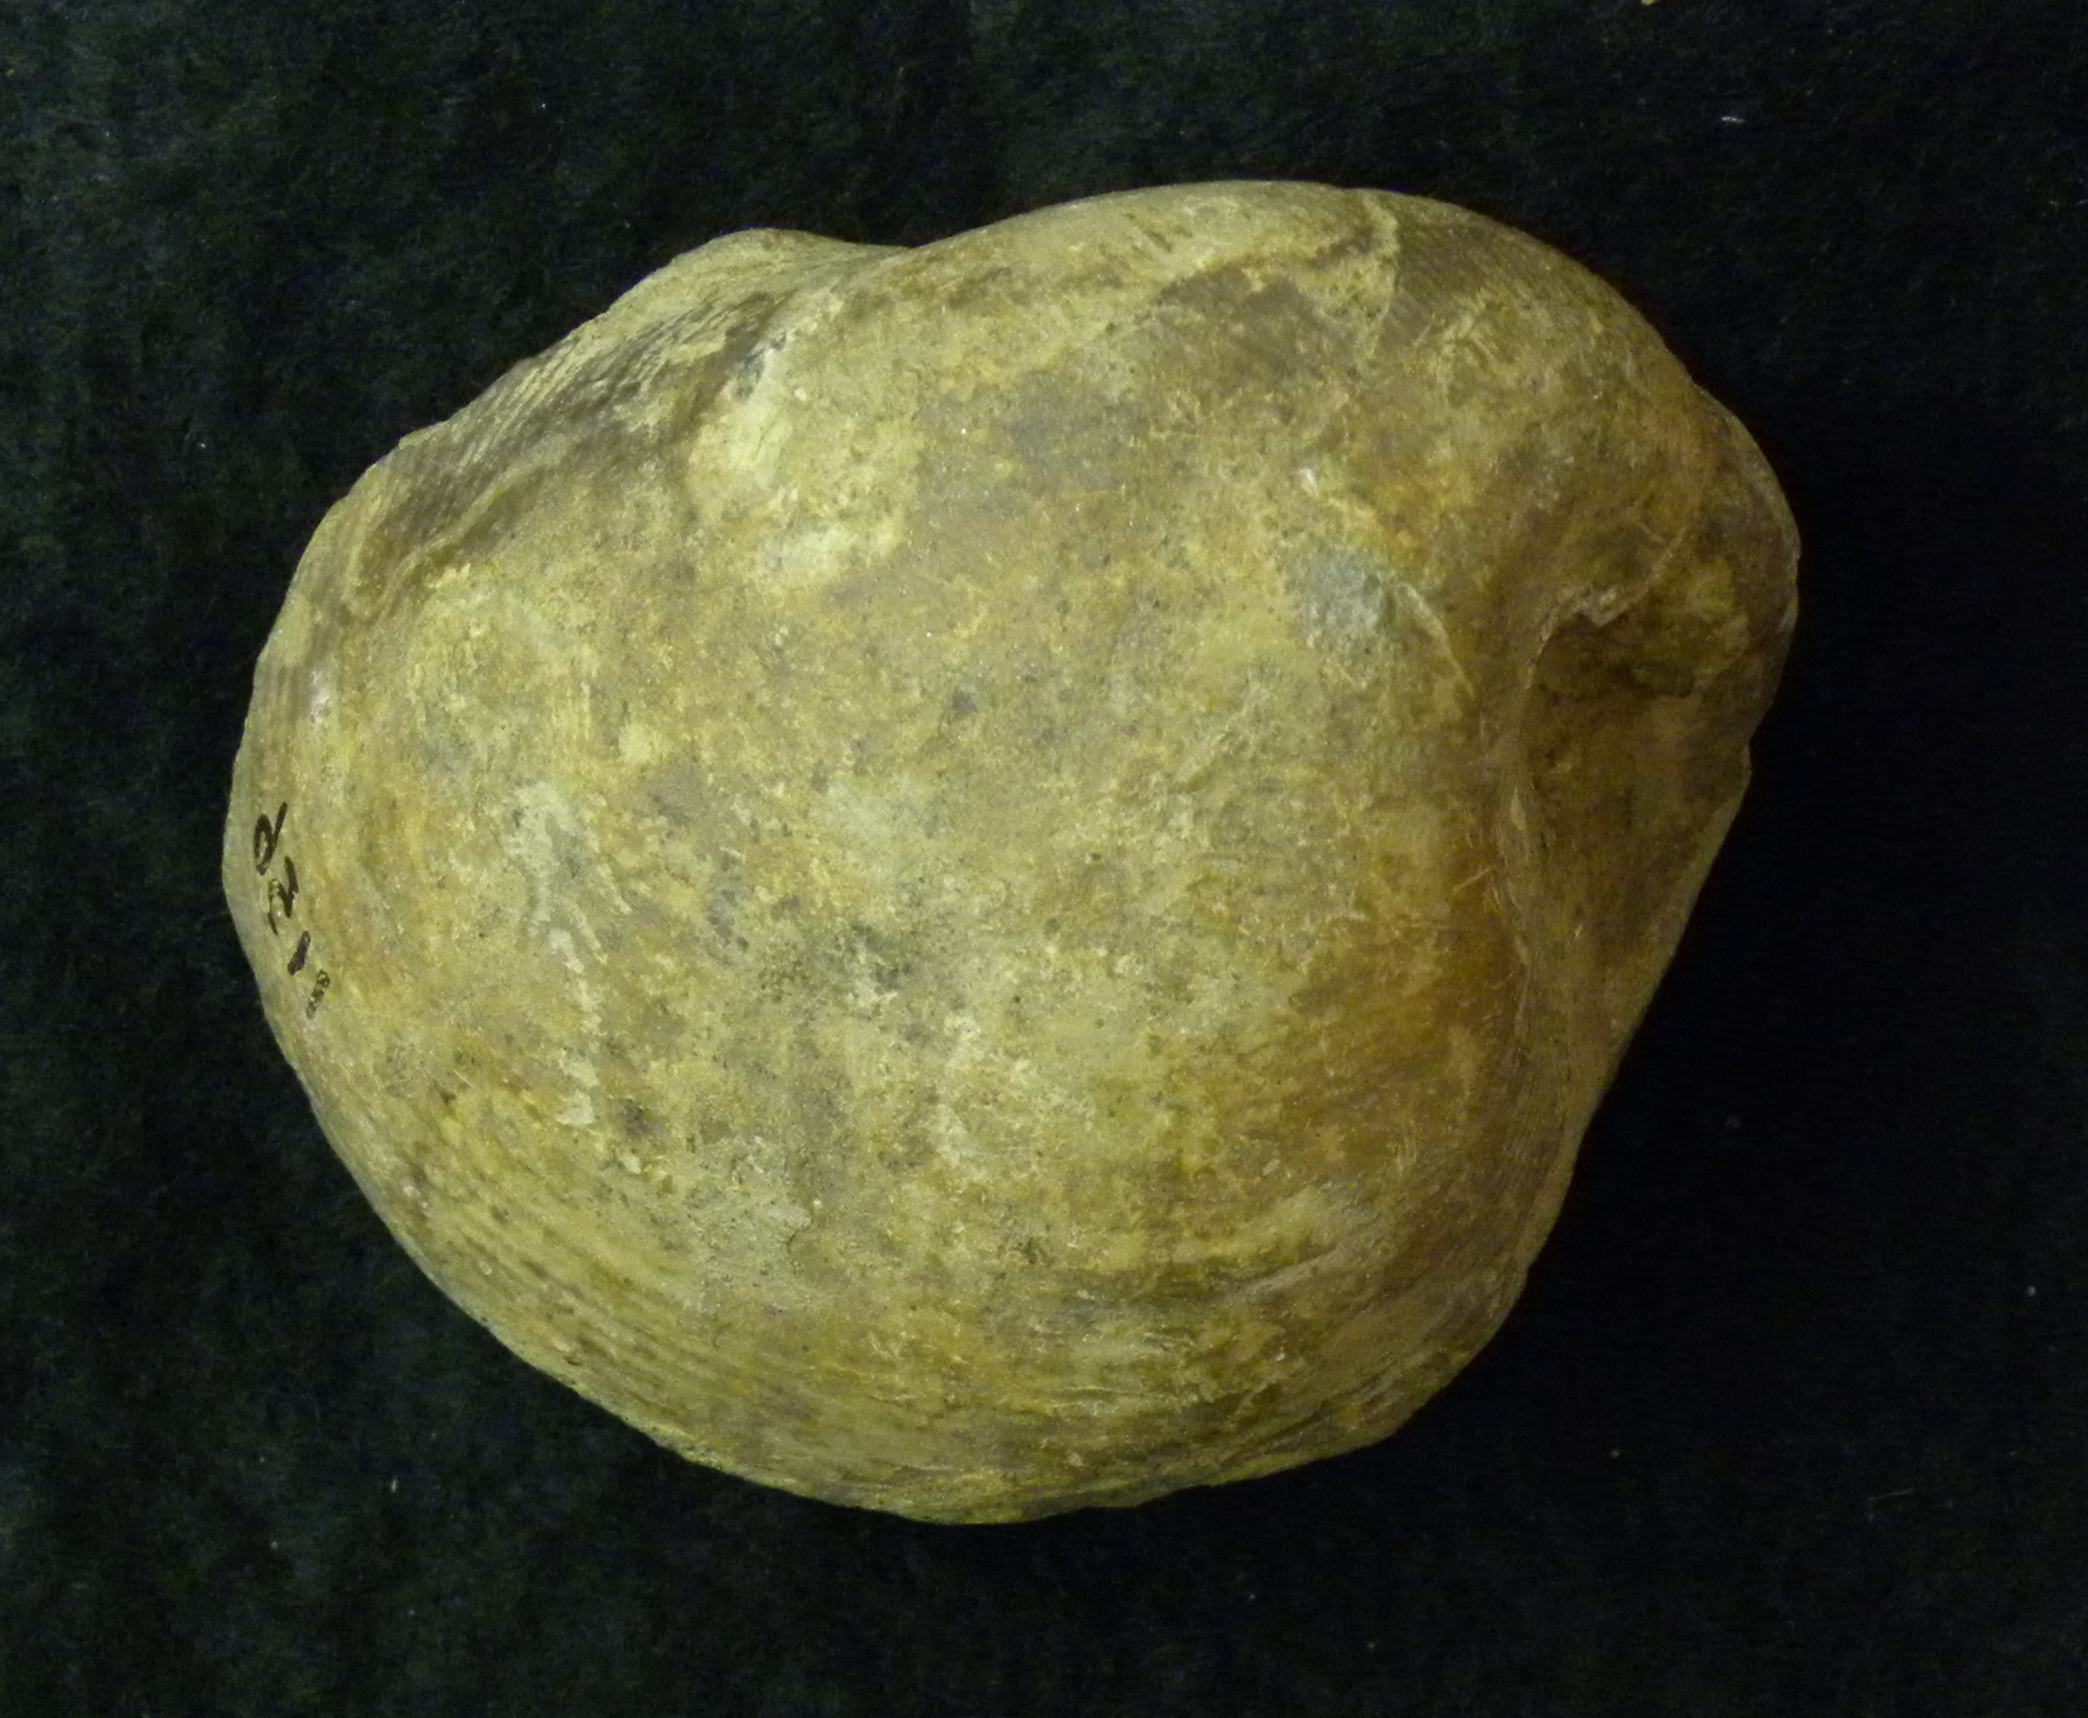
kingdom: Animalia
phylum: Mollusca
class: Bivalvia
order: Myida
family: Ceratomyidae
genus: Ceratomya
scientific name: Ceratomya
